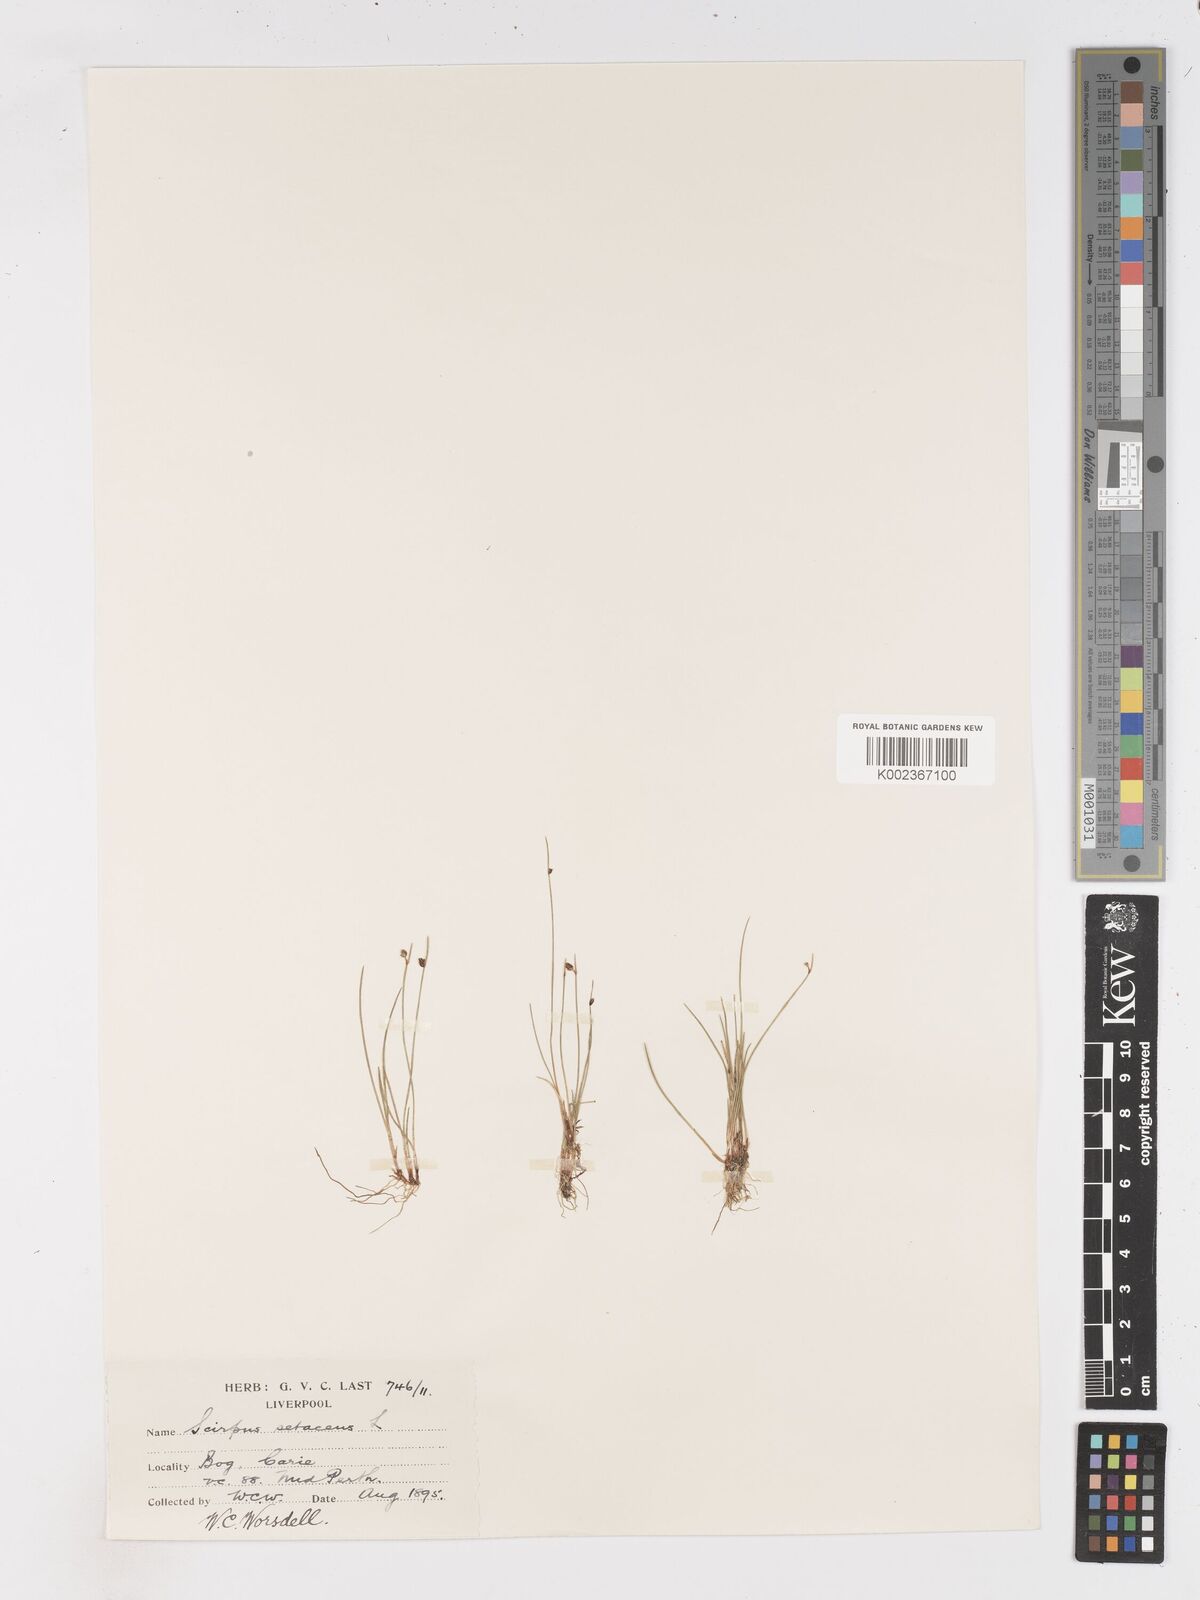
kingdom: Plantae
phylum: Tracheophyta
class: Liliopsida
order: Poales
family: Cyperaceae
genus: Isolepis
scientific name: Isolepis setacea
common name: Bristle club-rush
